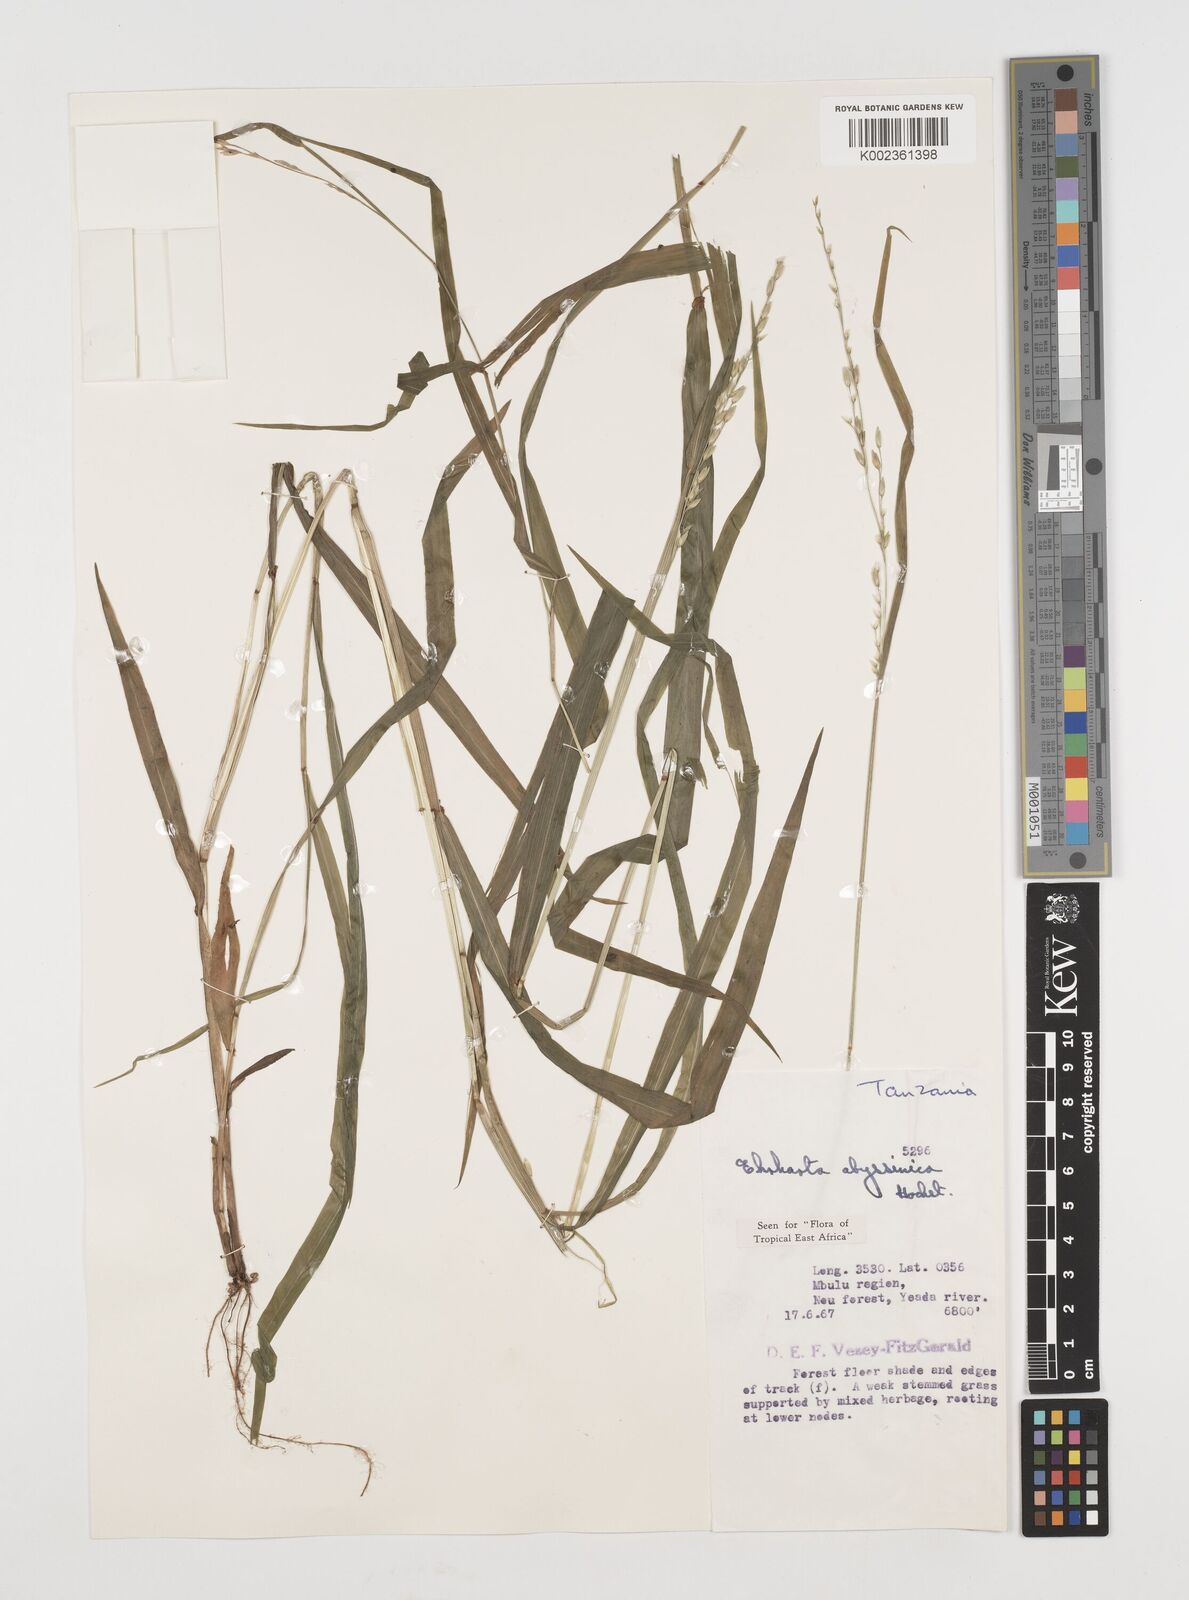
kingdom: Plantae
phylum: Tracheophyta
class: Liliopsida
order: Poales
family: Poaceae
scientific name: Poaceae
